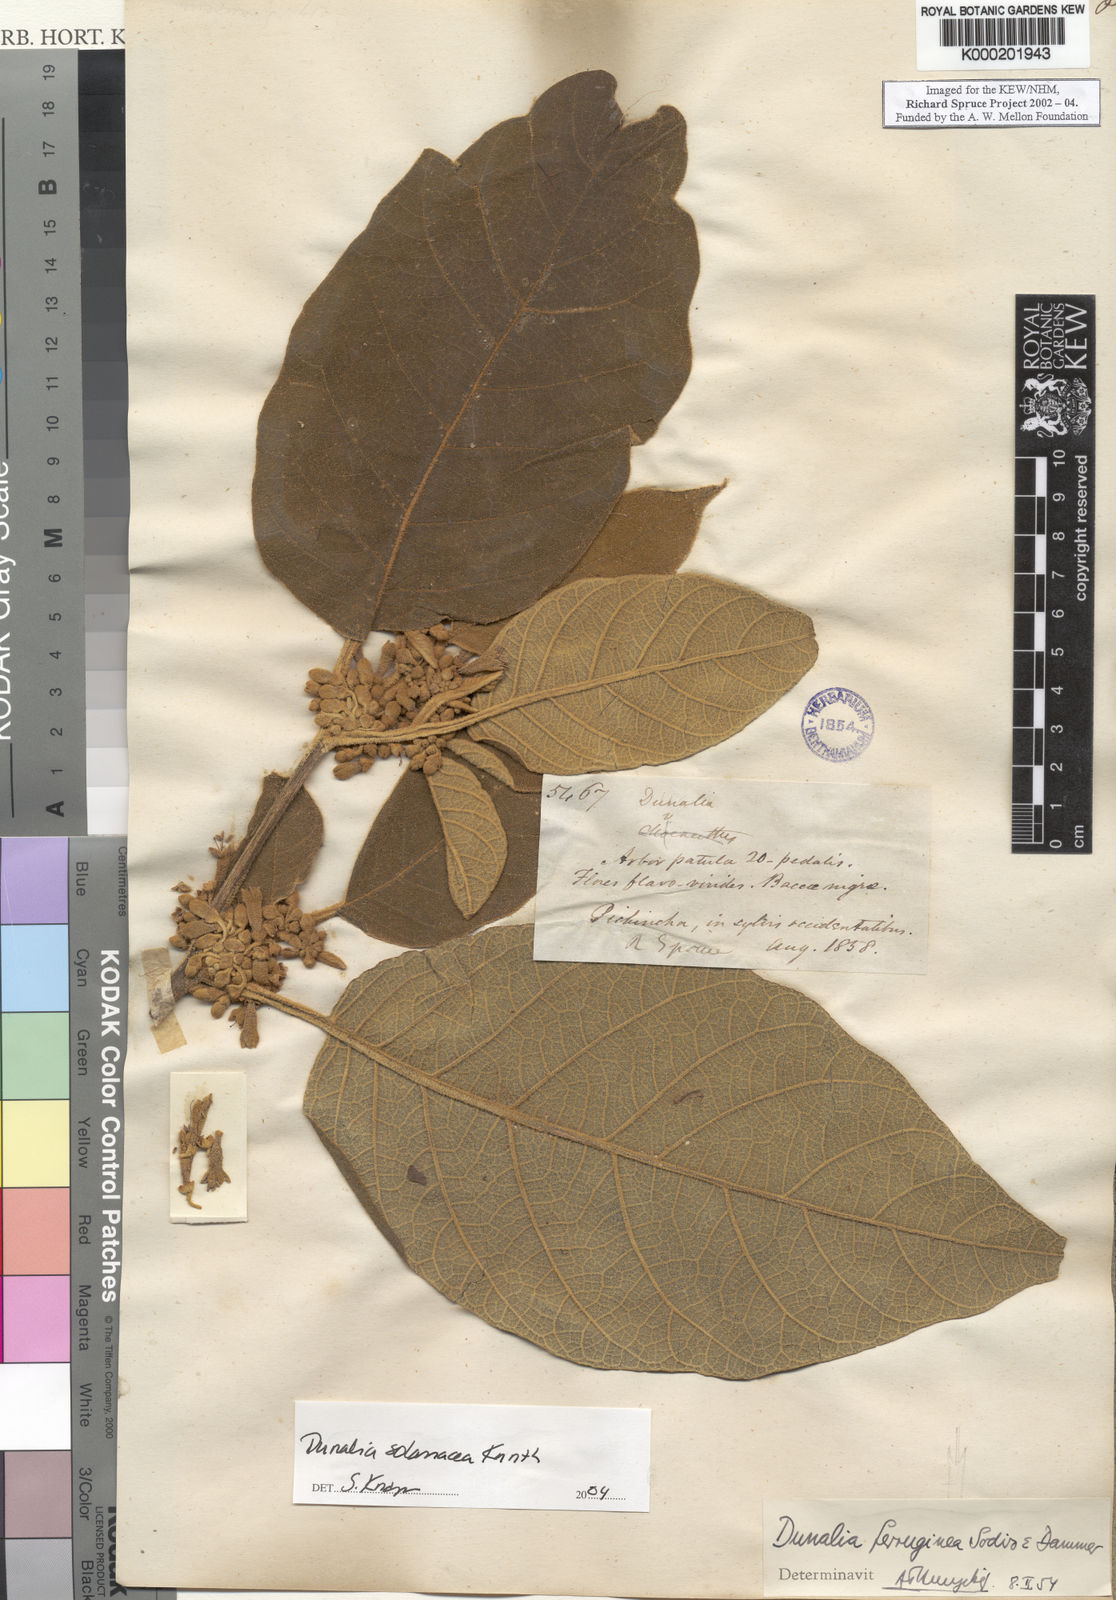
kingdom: Plantae
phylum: Tracheophyta
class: Magnoliopsida
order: Solanales
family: Solanaceae
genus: Saracha
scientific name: Saracha nigribaccata
